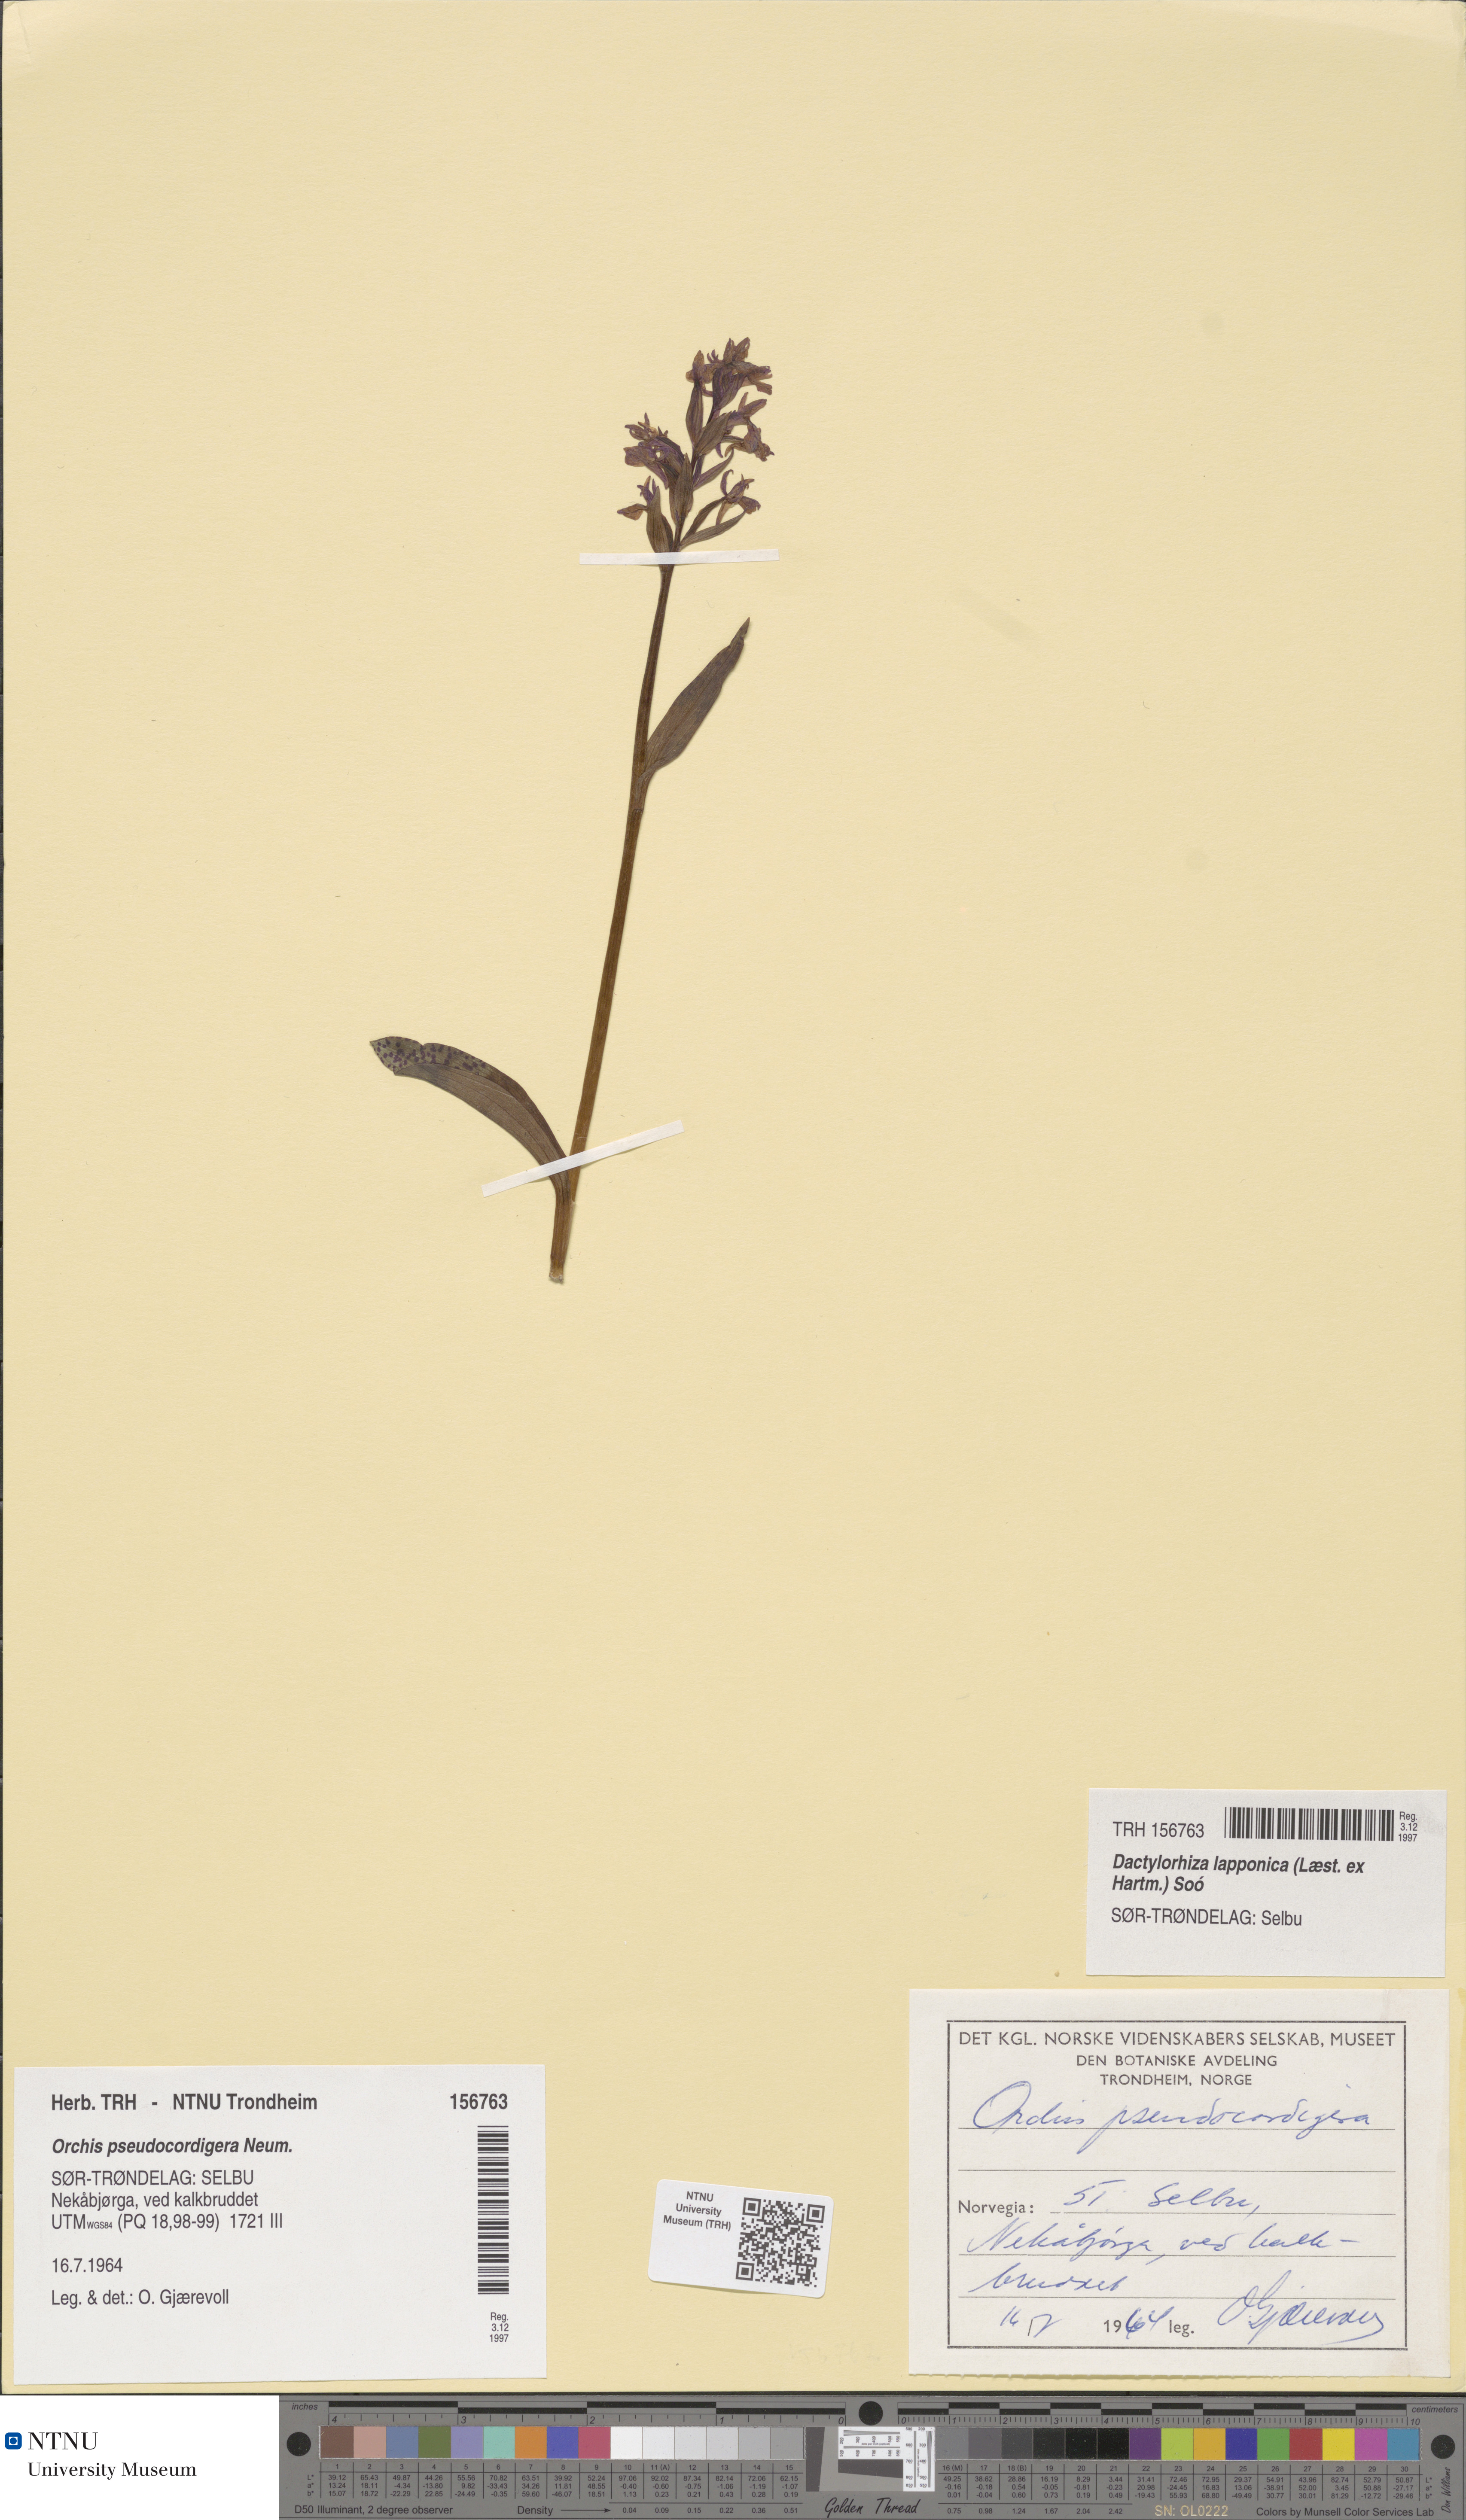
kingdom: Plantae
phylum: Tracheophyta
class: Liliopsida
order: Asparagales
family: Orchidaceae
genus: Dactylorhiza
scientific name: Dactylorhiza majalis
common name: Marsh orchid
